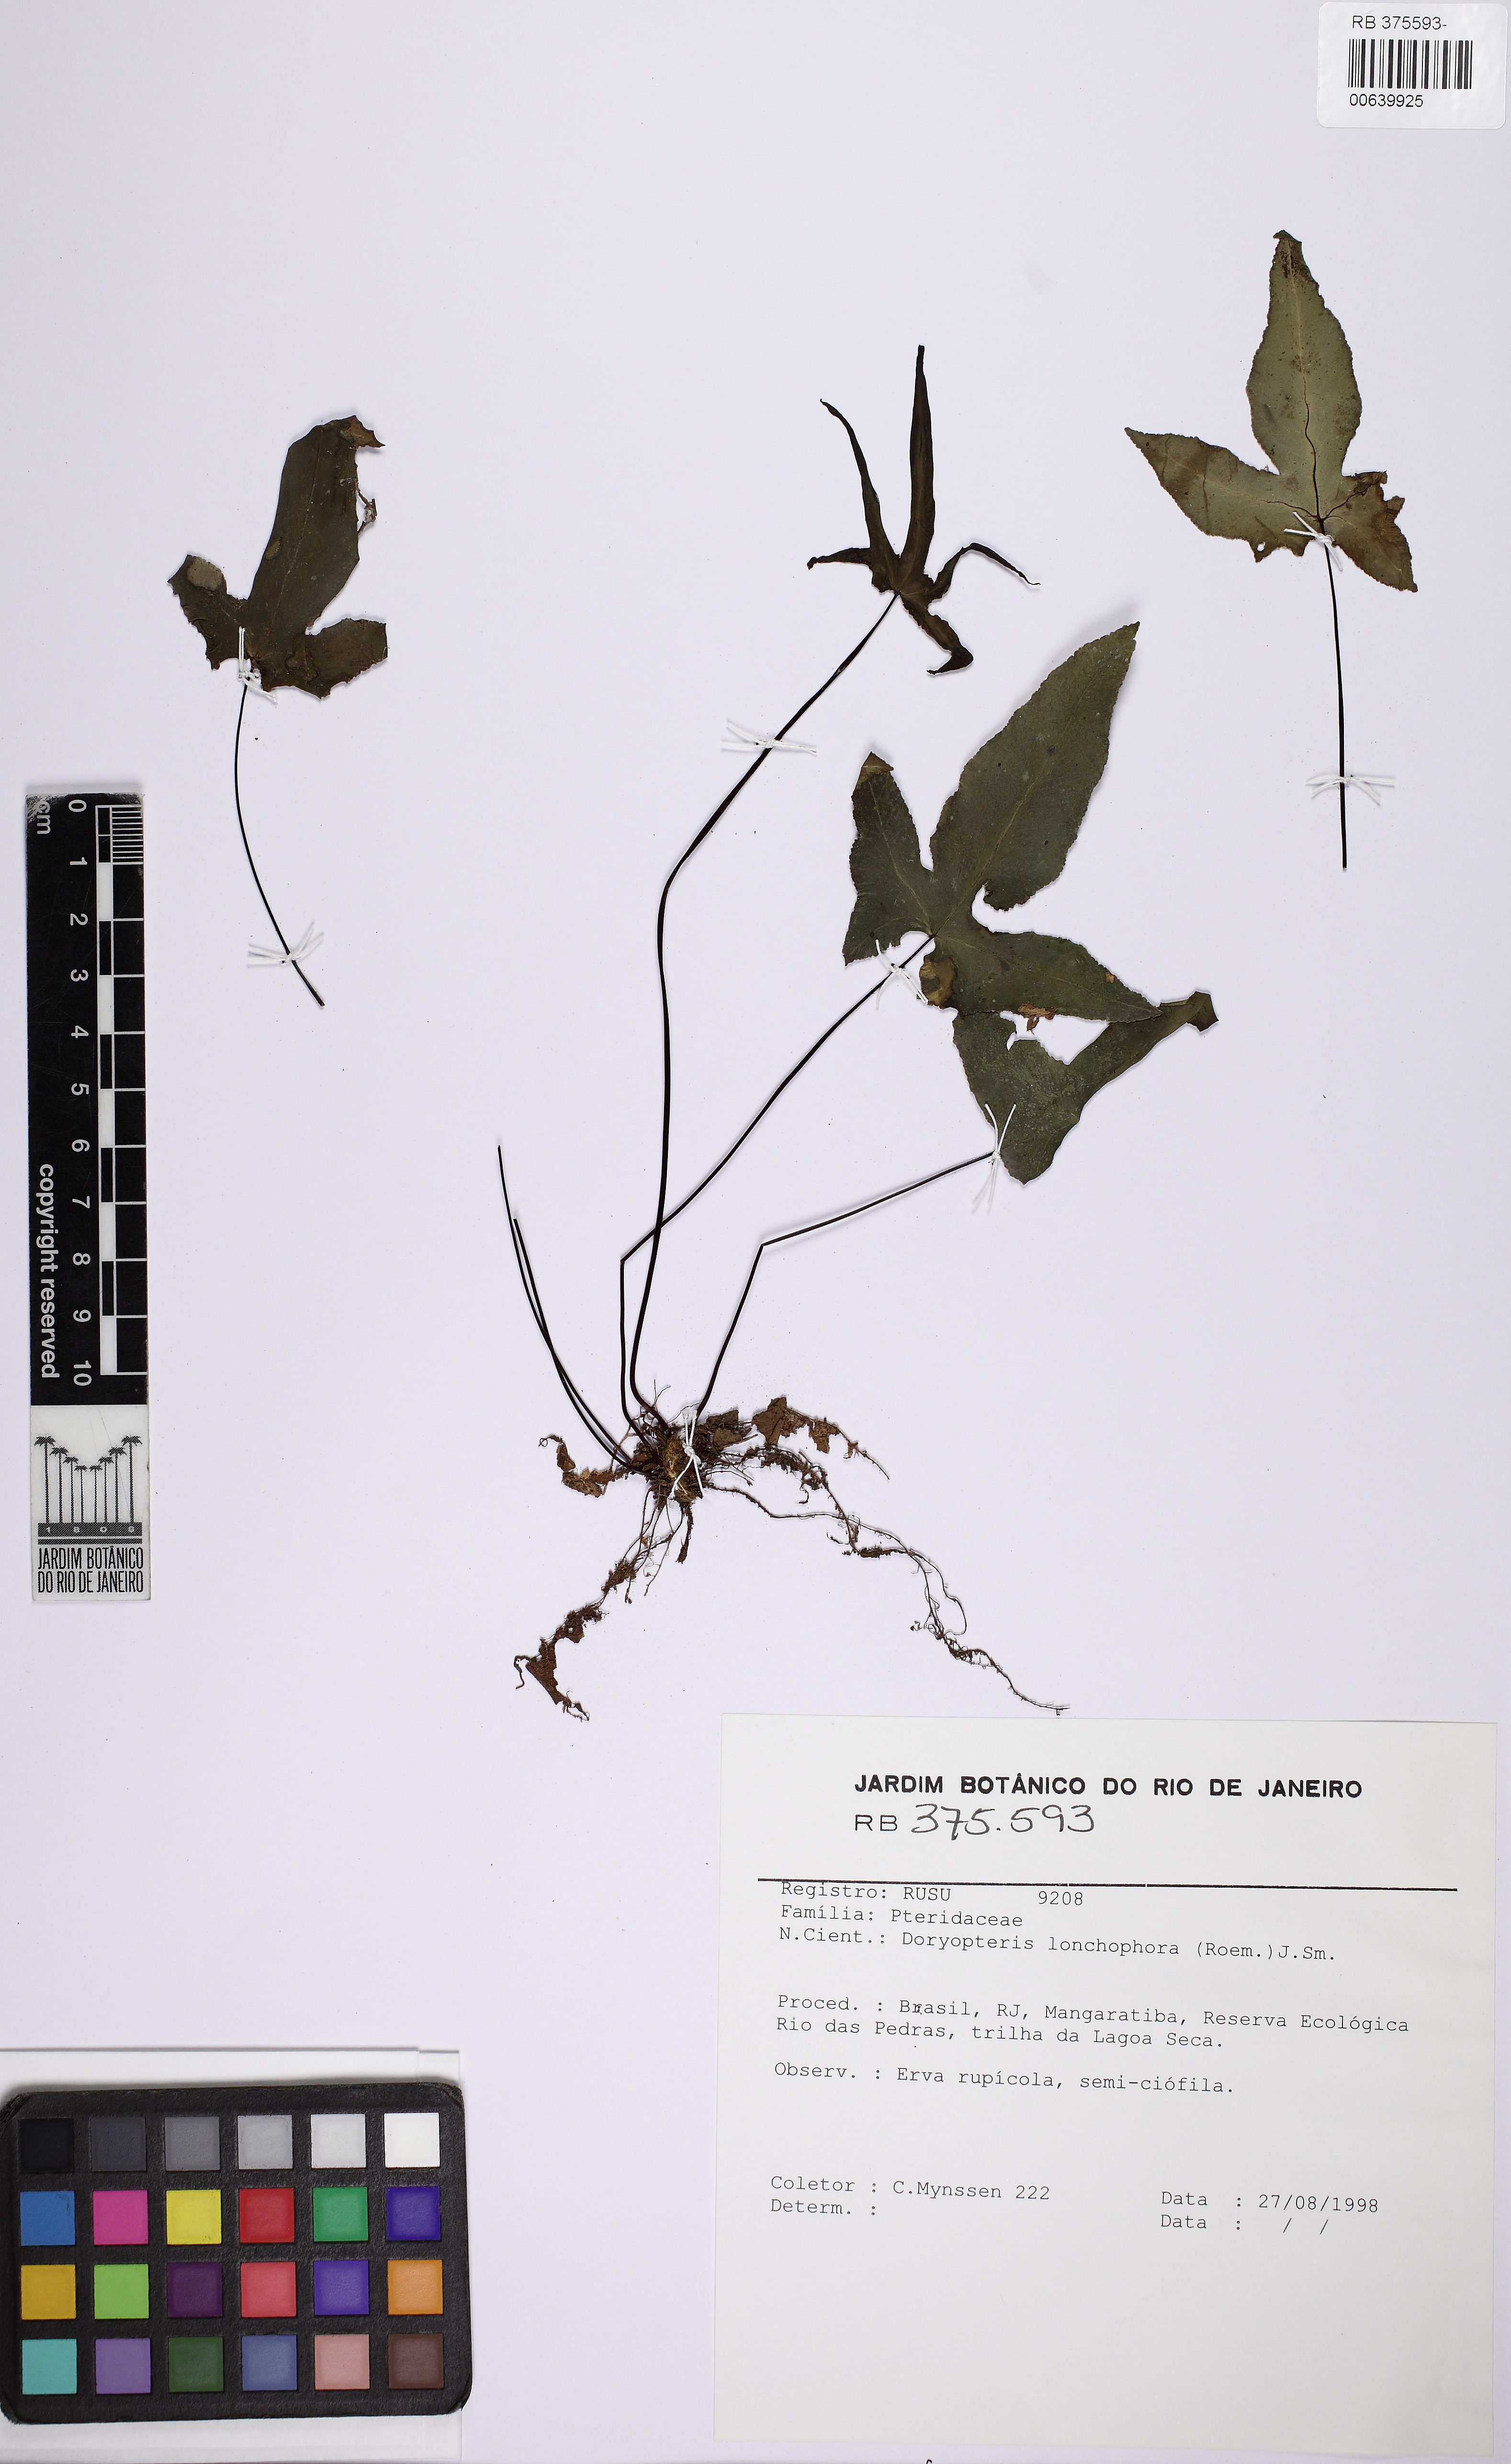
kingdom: Plantae
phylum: Tracheophyta
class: Polypodiopsida
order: Polypodiales
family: Pteridaceae
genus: Doryopteris
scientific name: Doryopteris lonchophora
